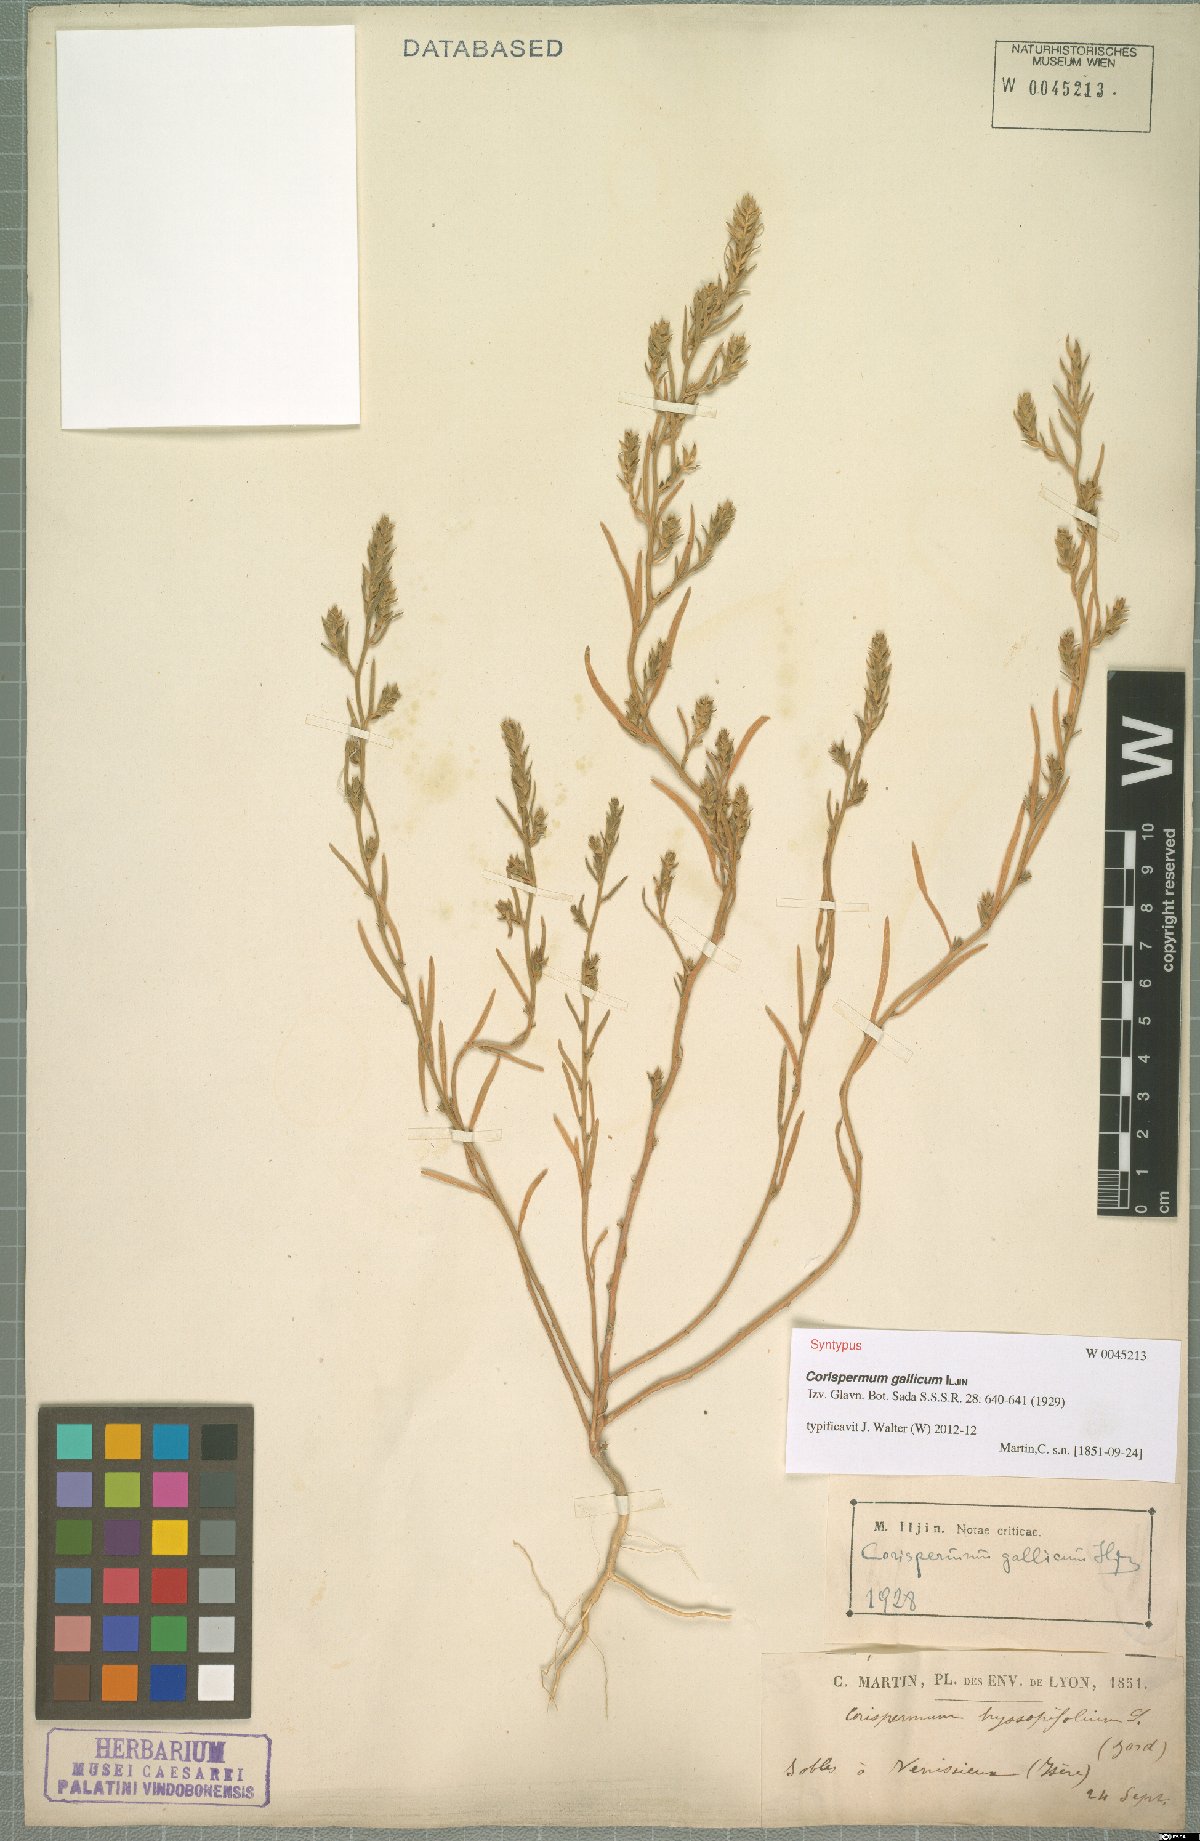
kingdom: Plantae
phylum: Tracheophyta
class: Magnoliopsida
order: Caryophyllales
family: Amaranthaceae
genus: Corispermum
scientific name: Corispermum gallicum
